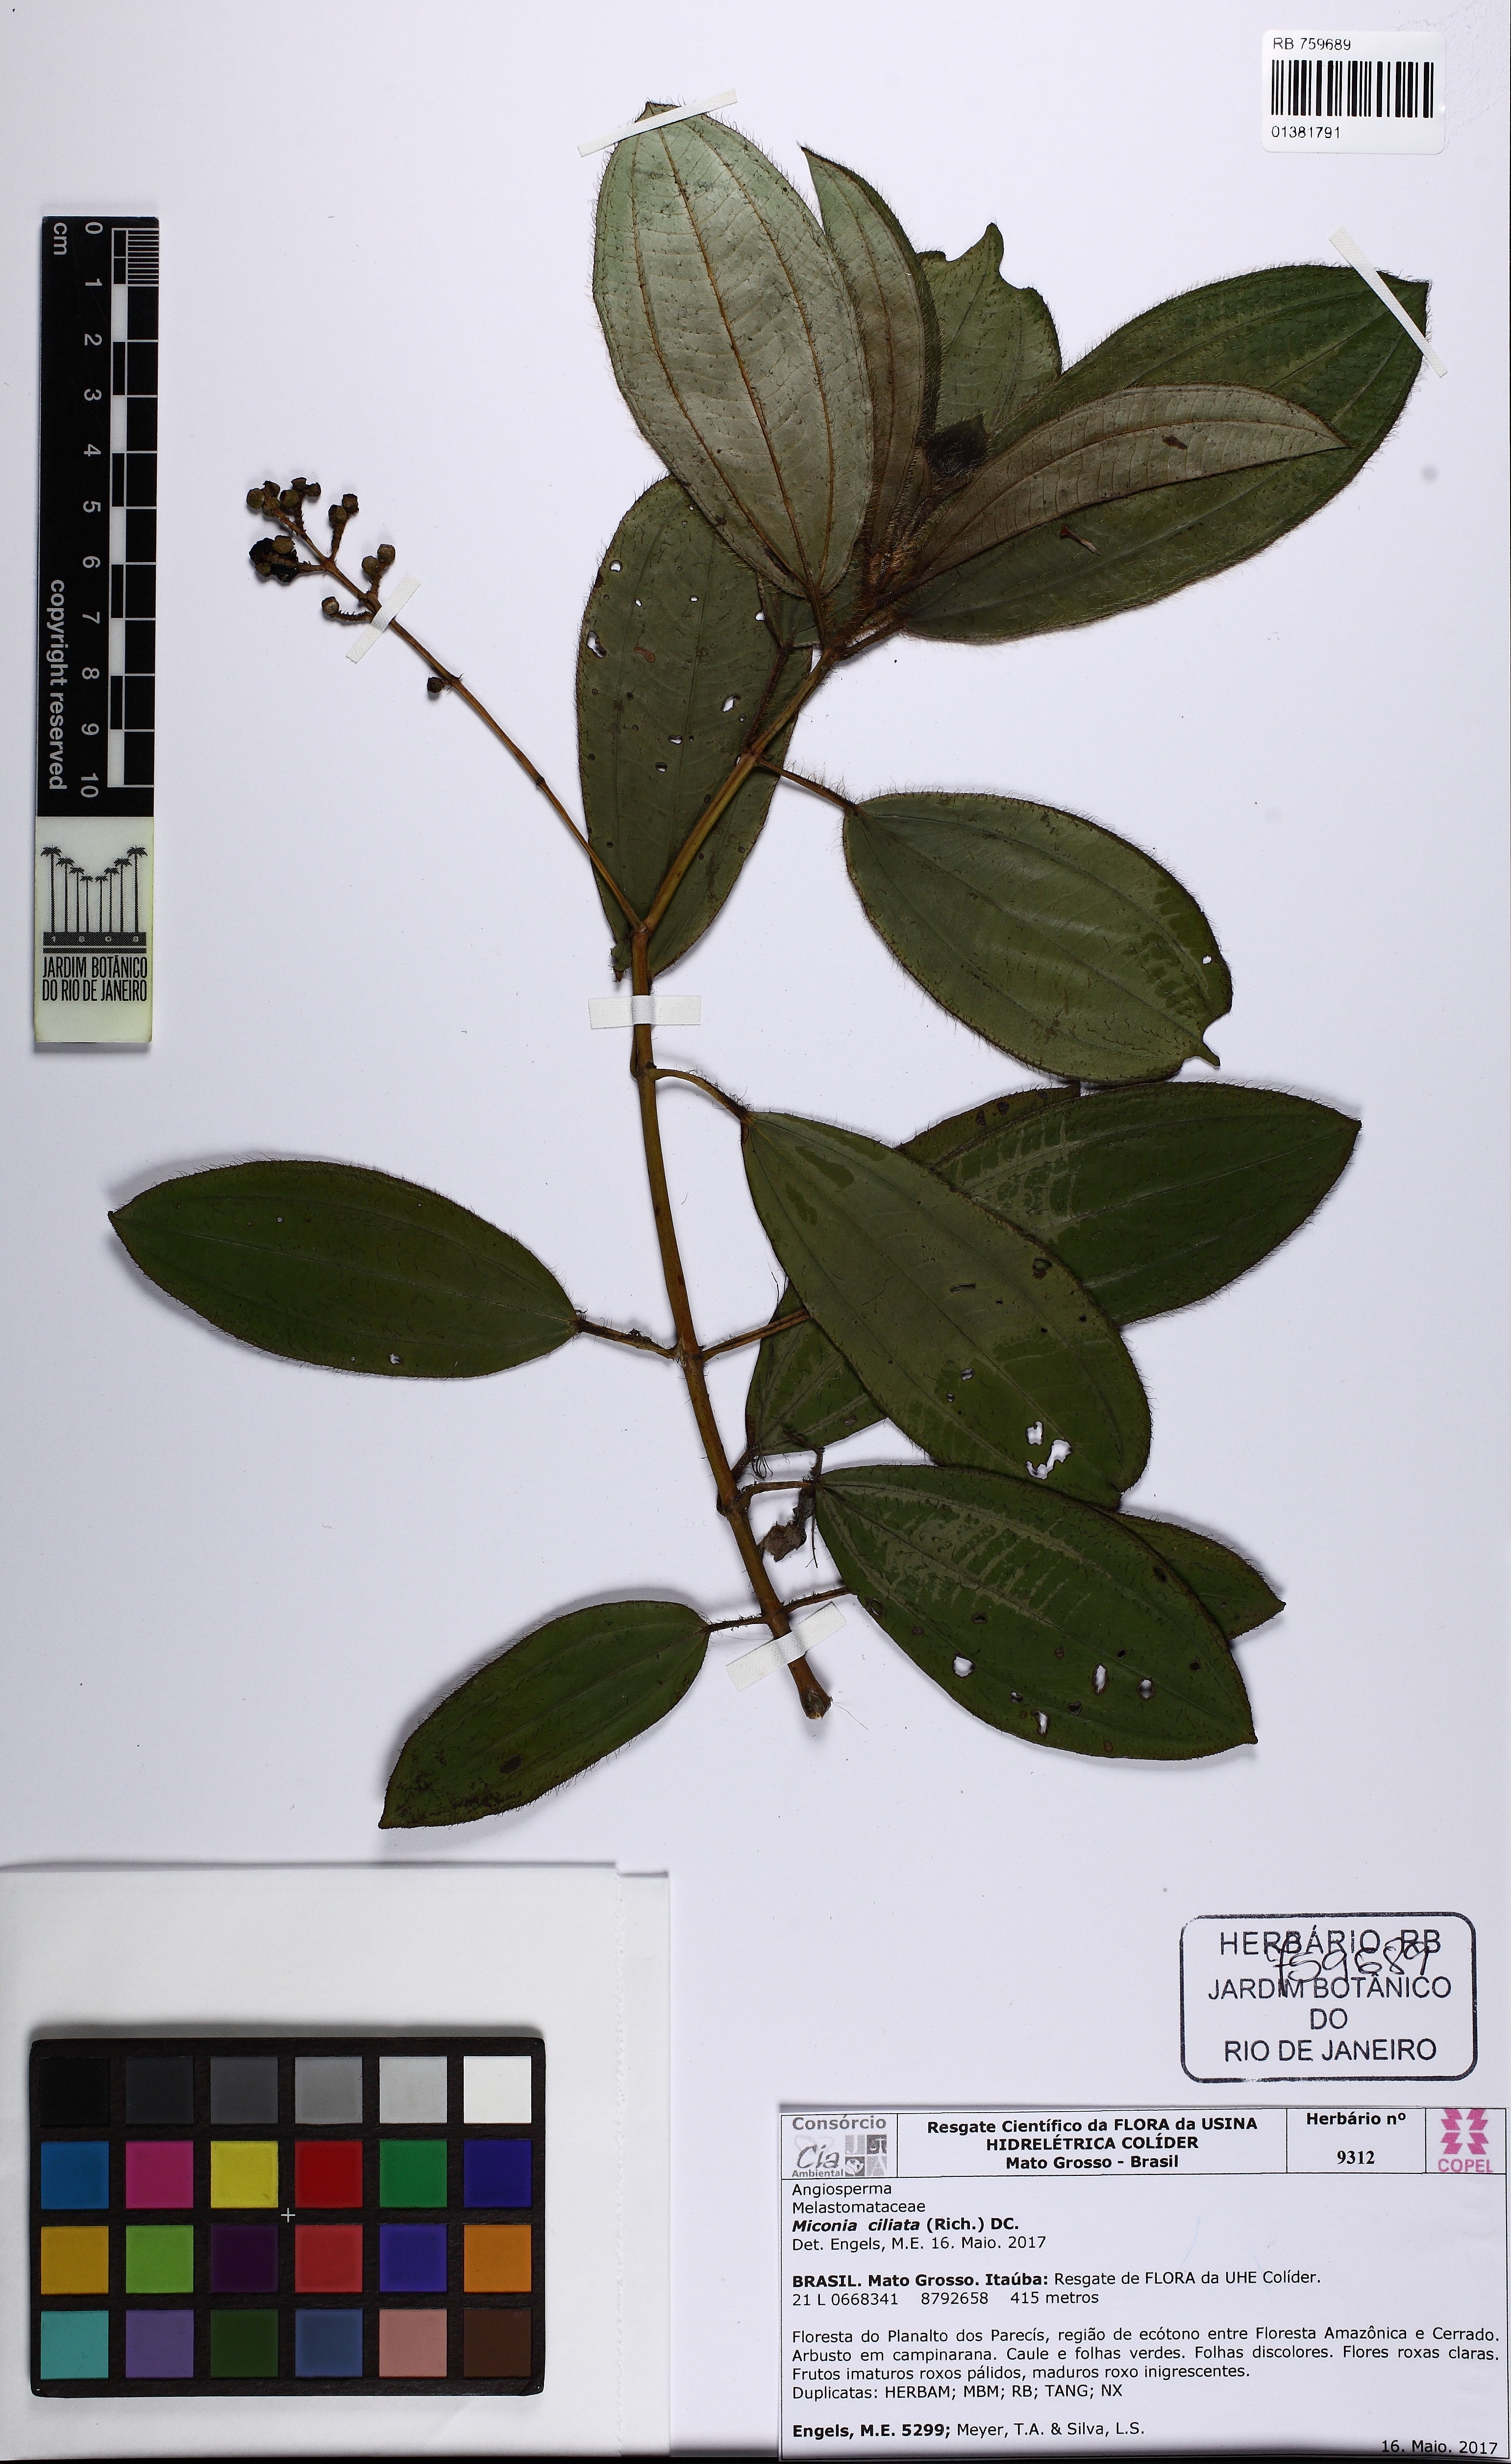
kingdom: Plantae
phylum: Tracheophyta
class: Magnoliopsida
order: Myrtales
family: Melastomataceae
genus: Miconia
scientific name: Miconia ciliata
